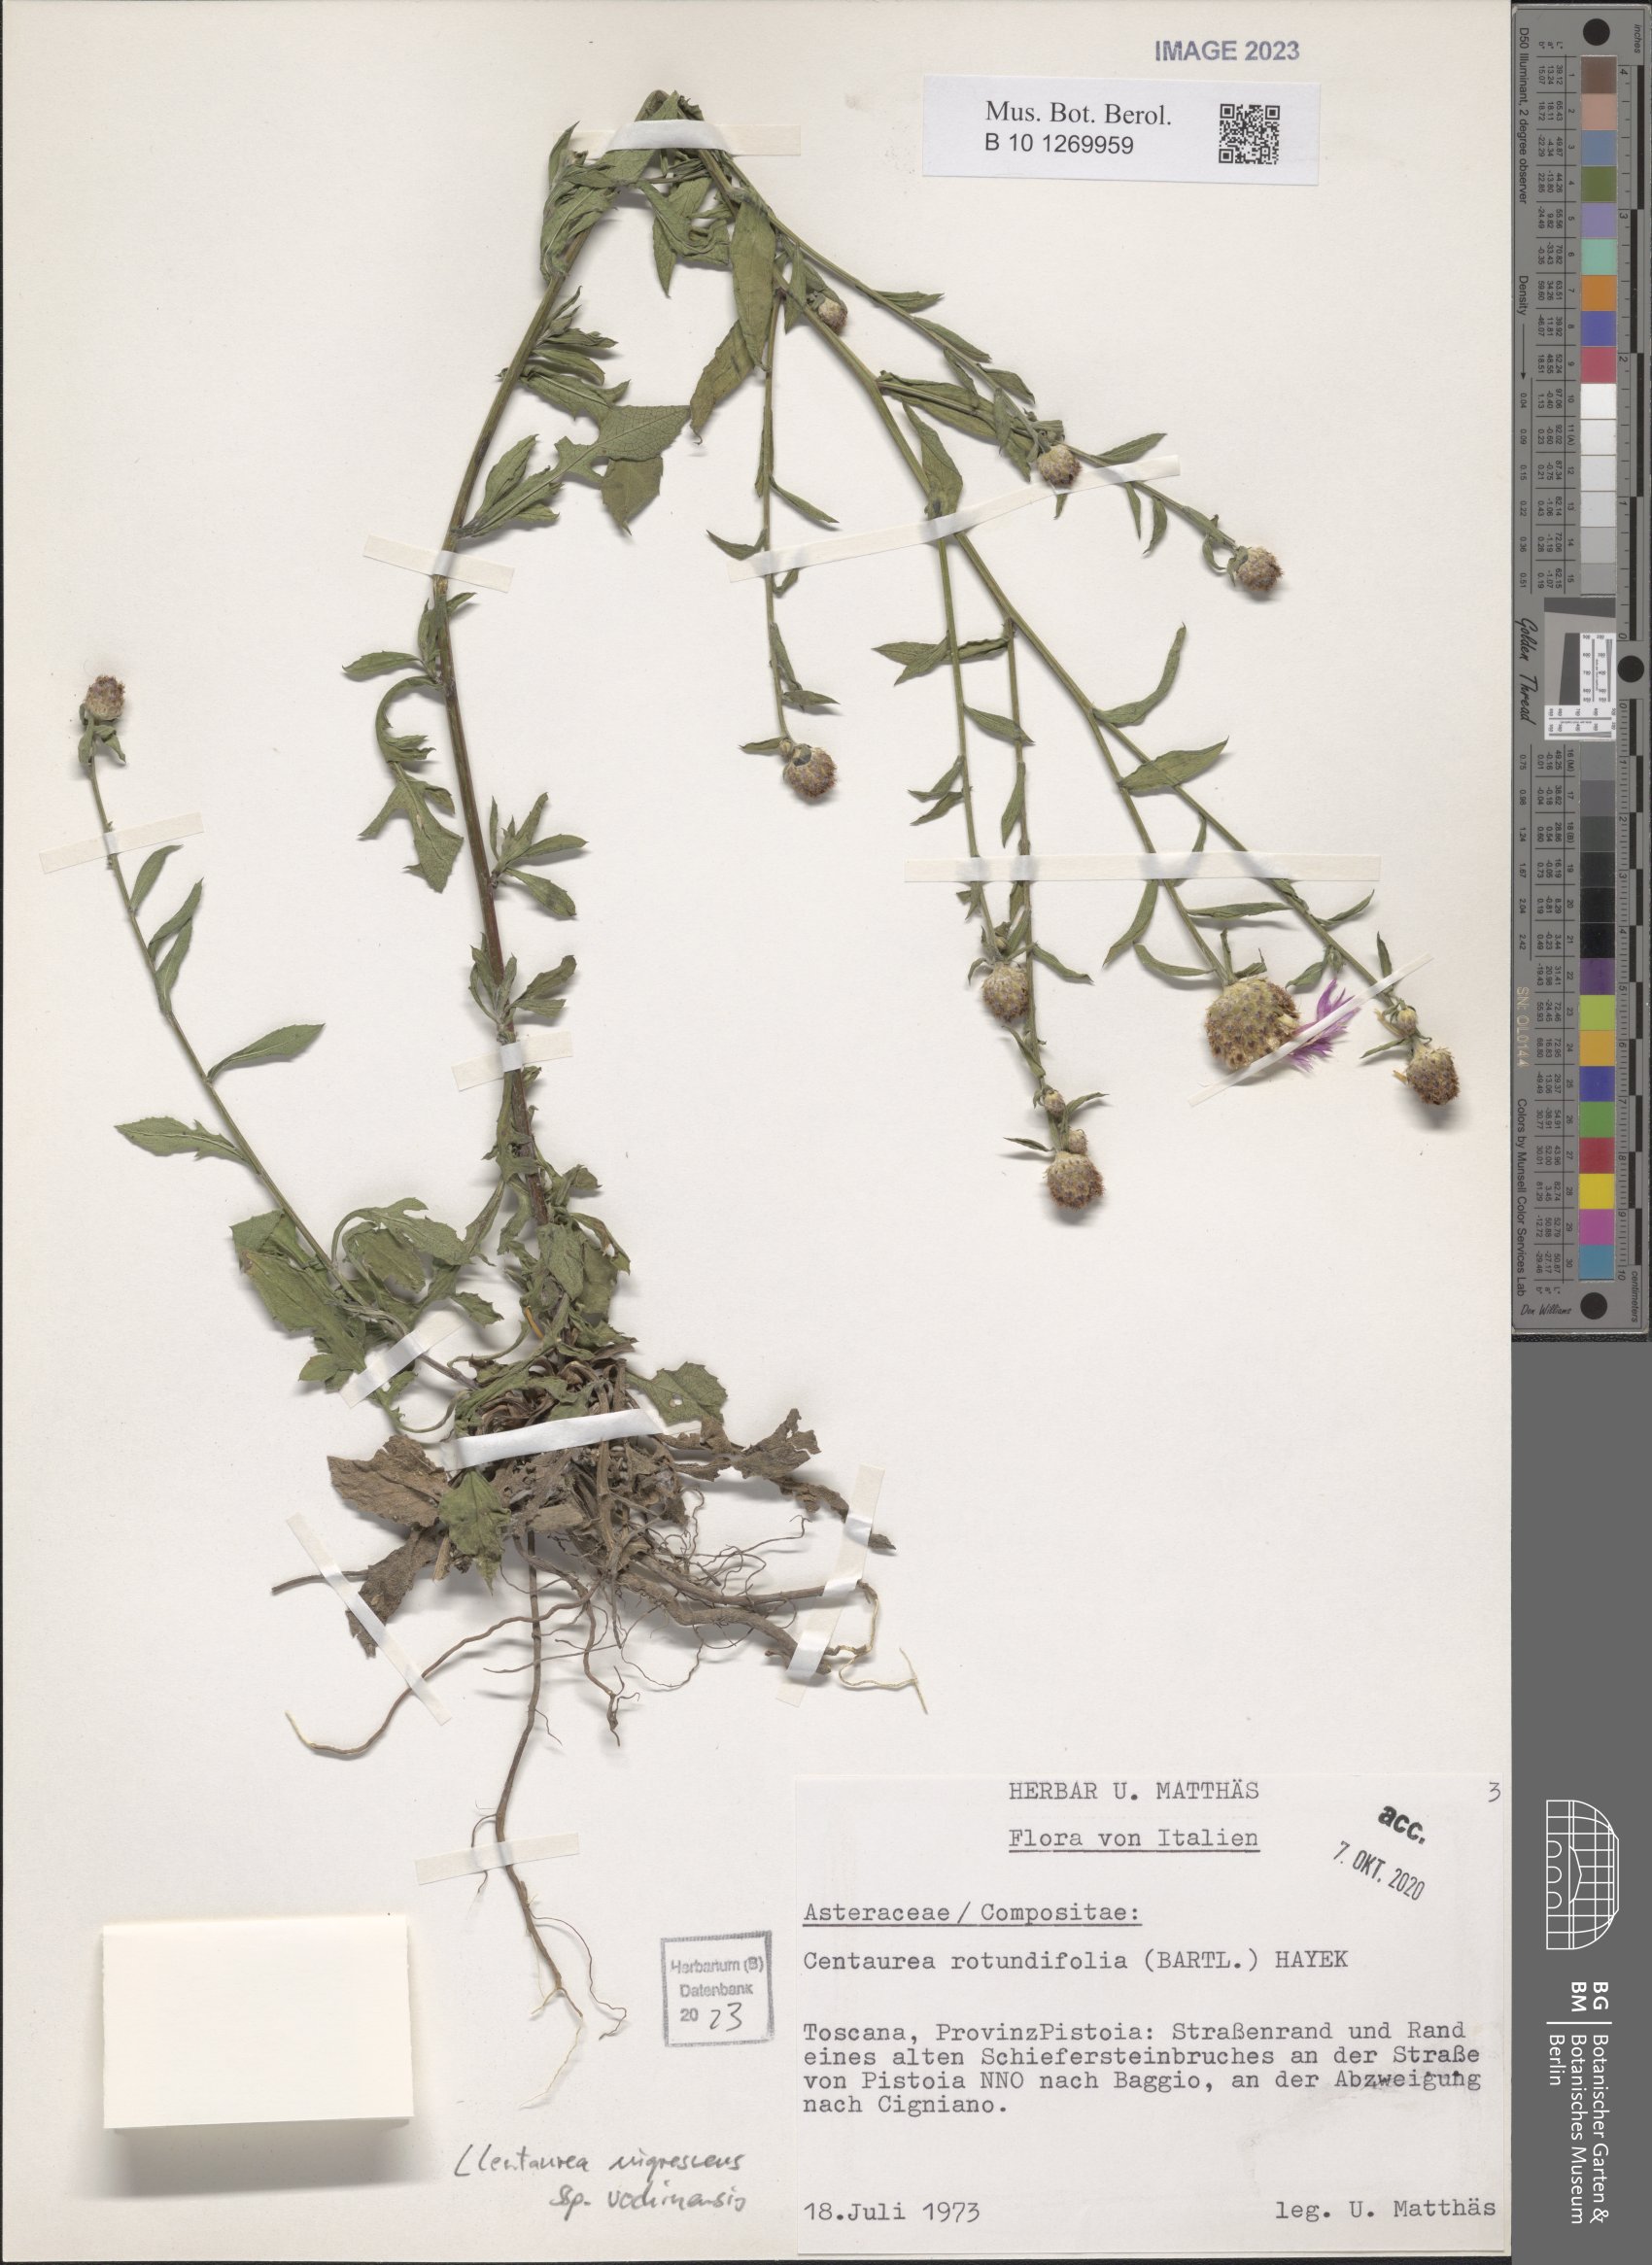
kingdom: Plantae
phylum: Tracheophyta
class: Magnoliopsida
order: Asterales
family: Asteraceae
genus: Centaurea
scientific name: Centaurea carniolica
